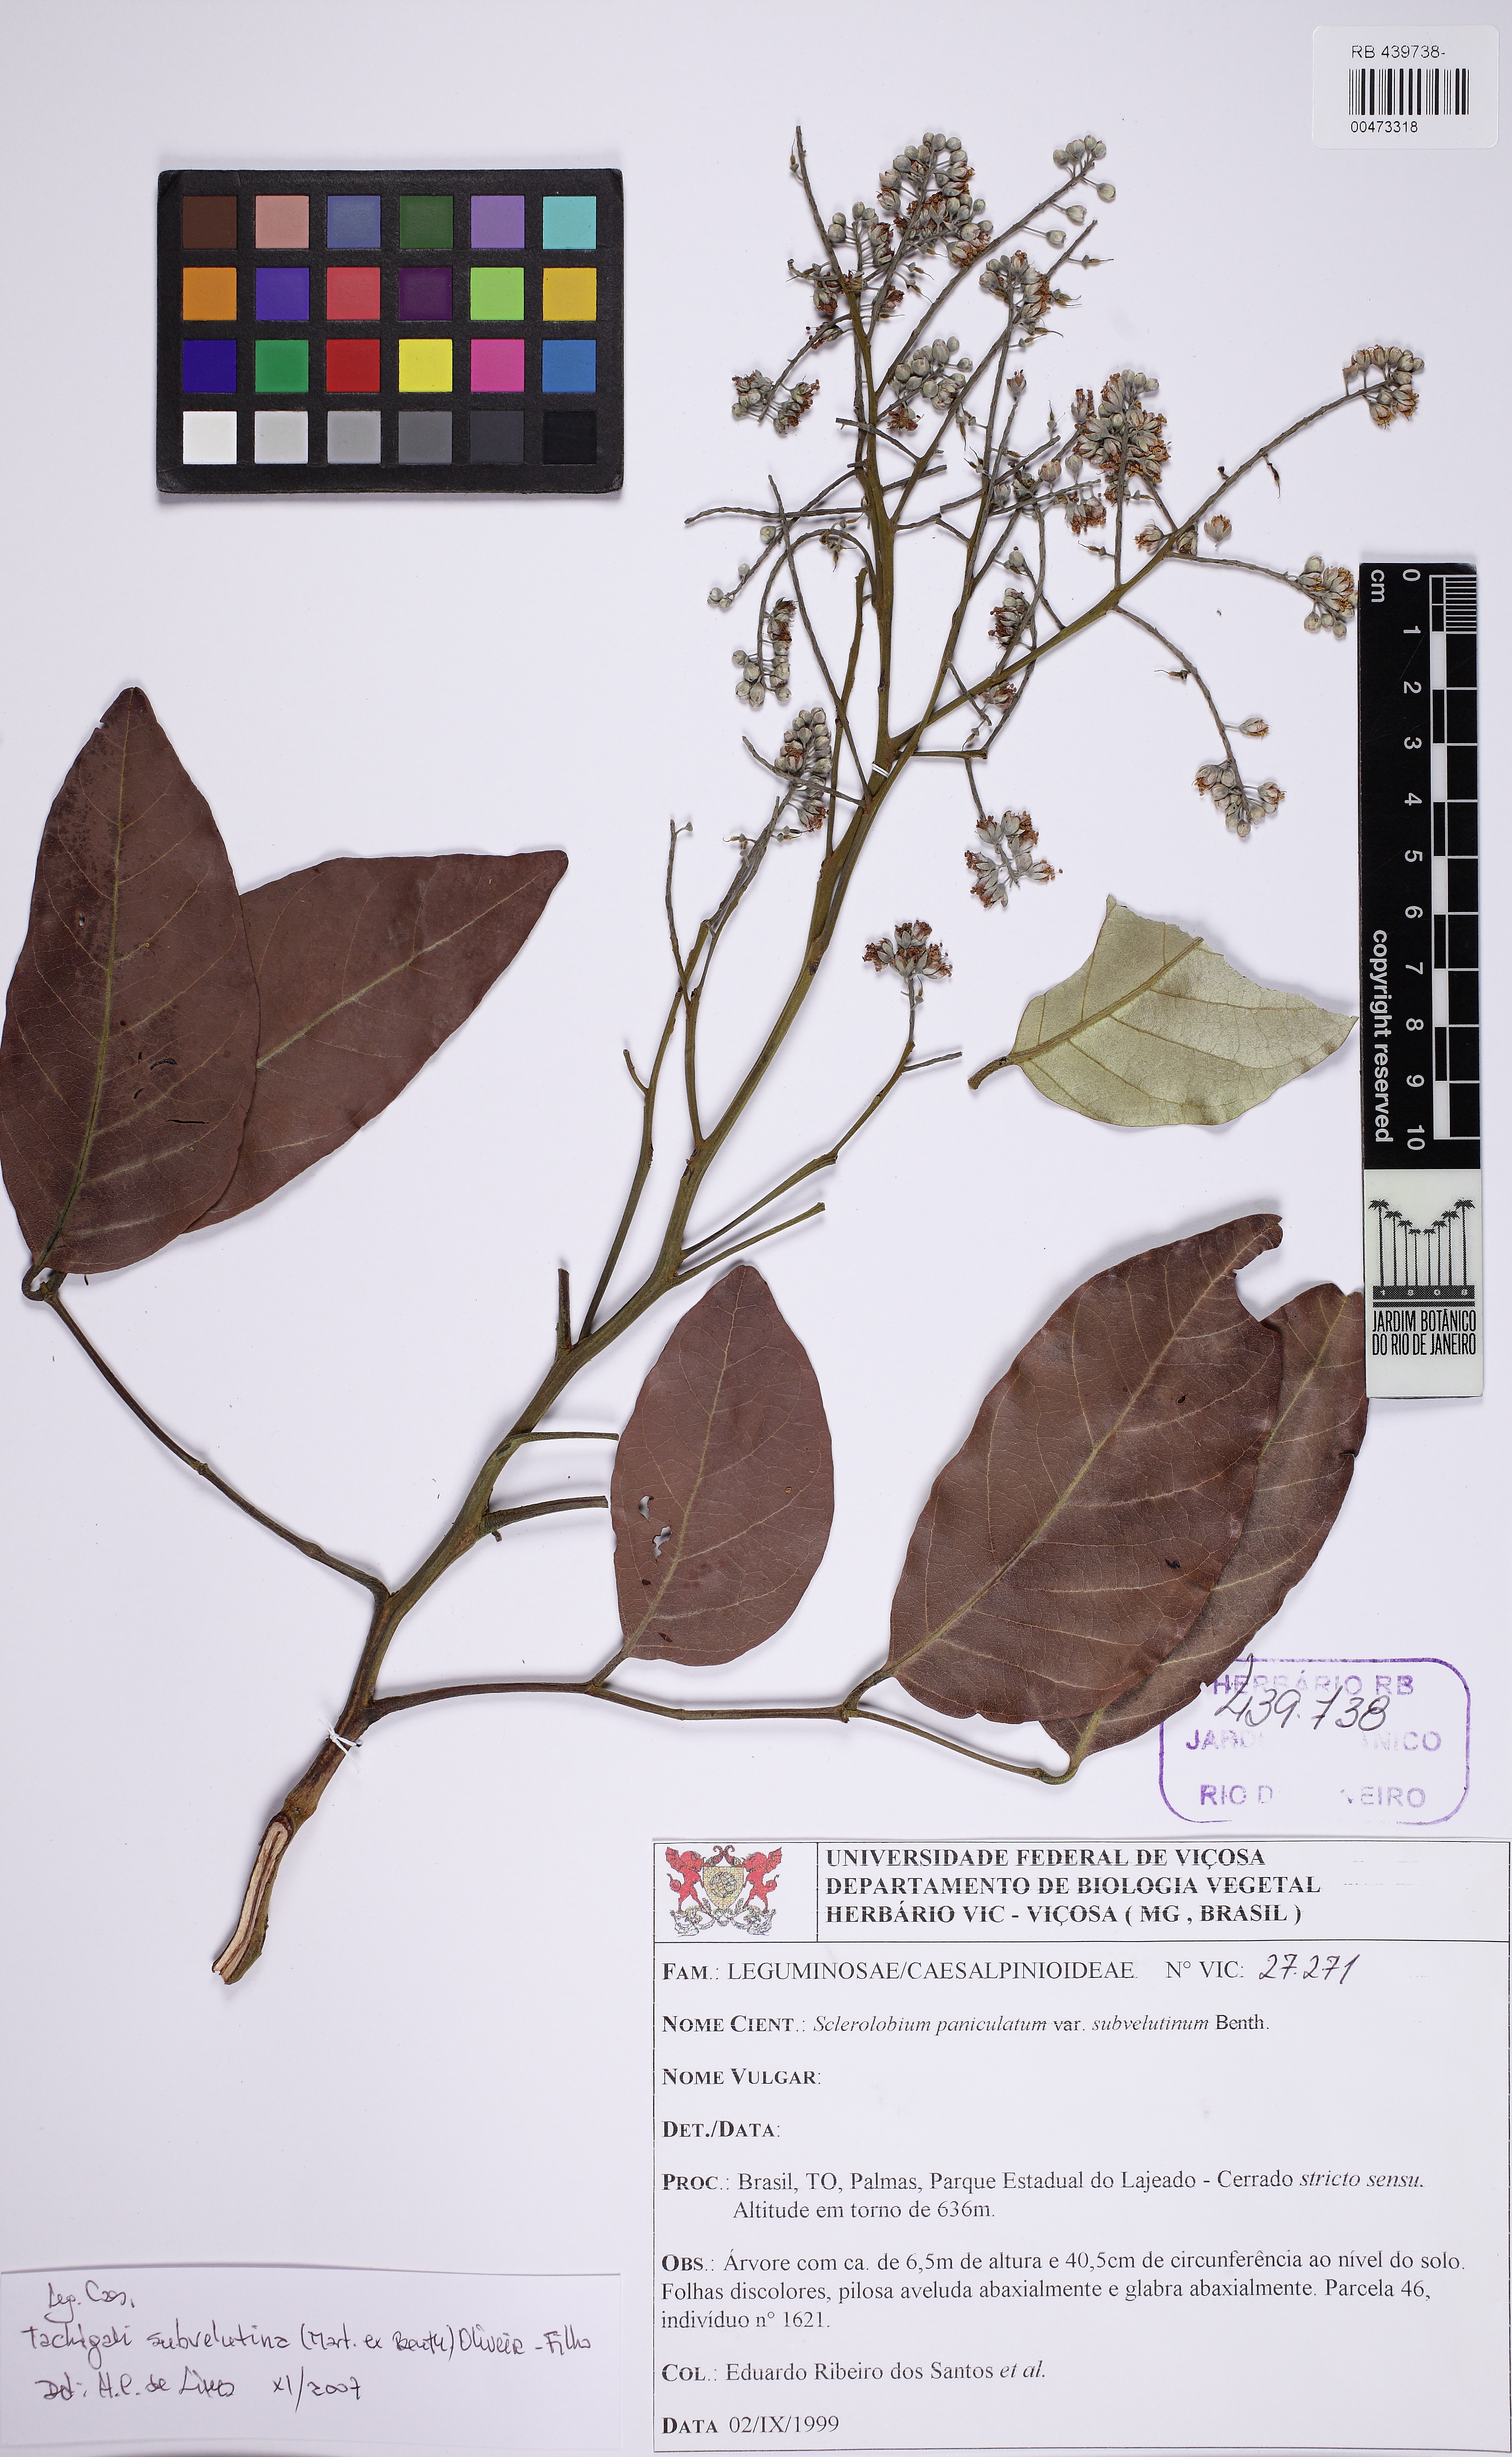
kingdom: Plantae
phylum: Tracheophyta
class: Magnoliopsida
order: Fabales
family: Fabaceae
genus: Tachigali
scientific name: Tachigali subvelutina
